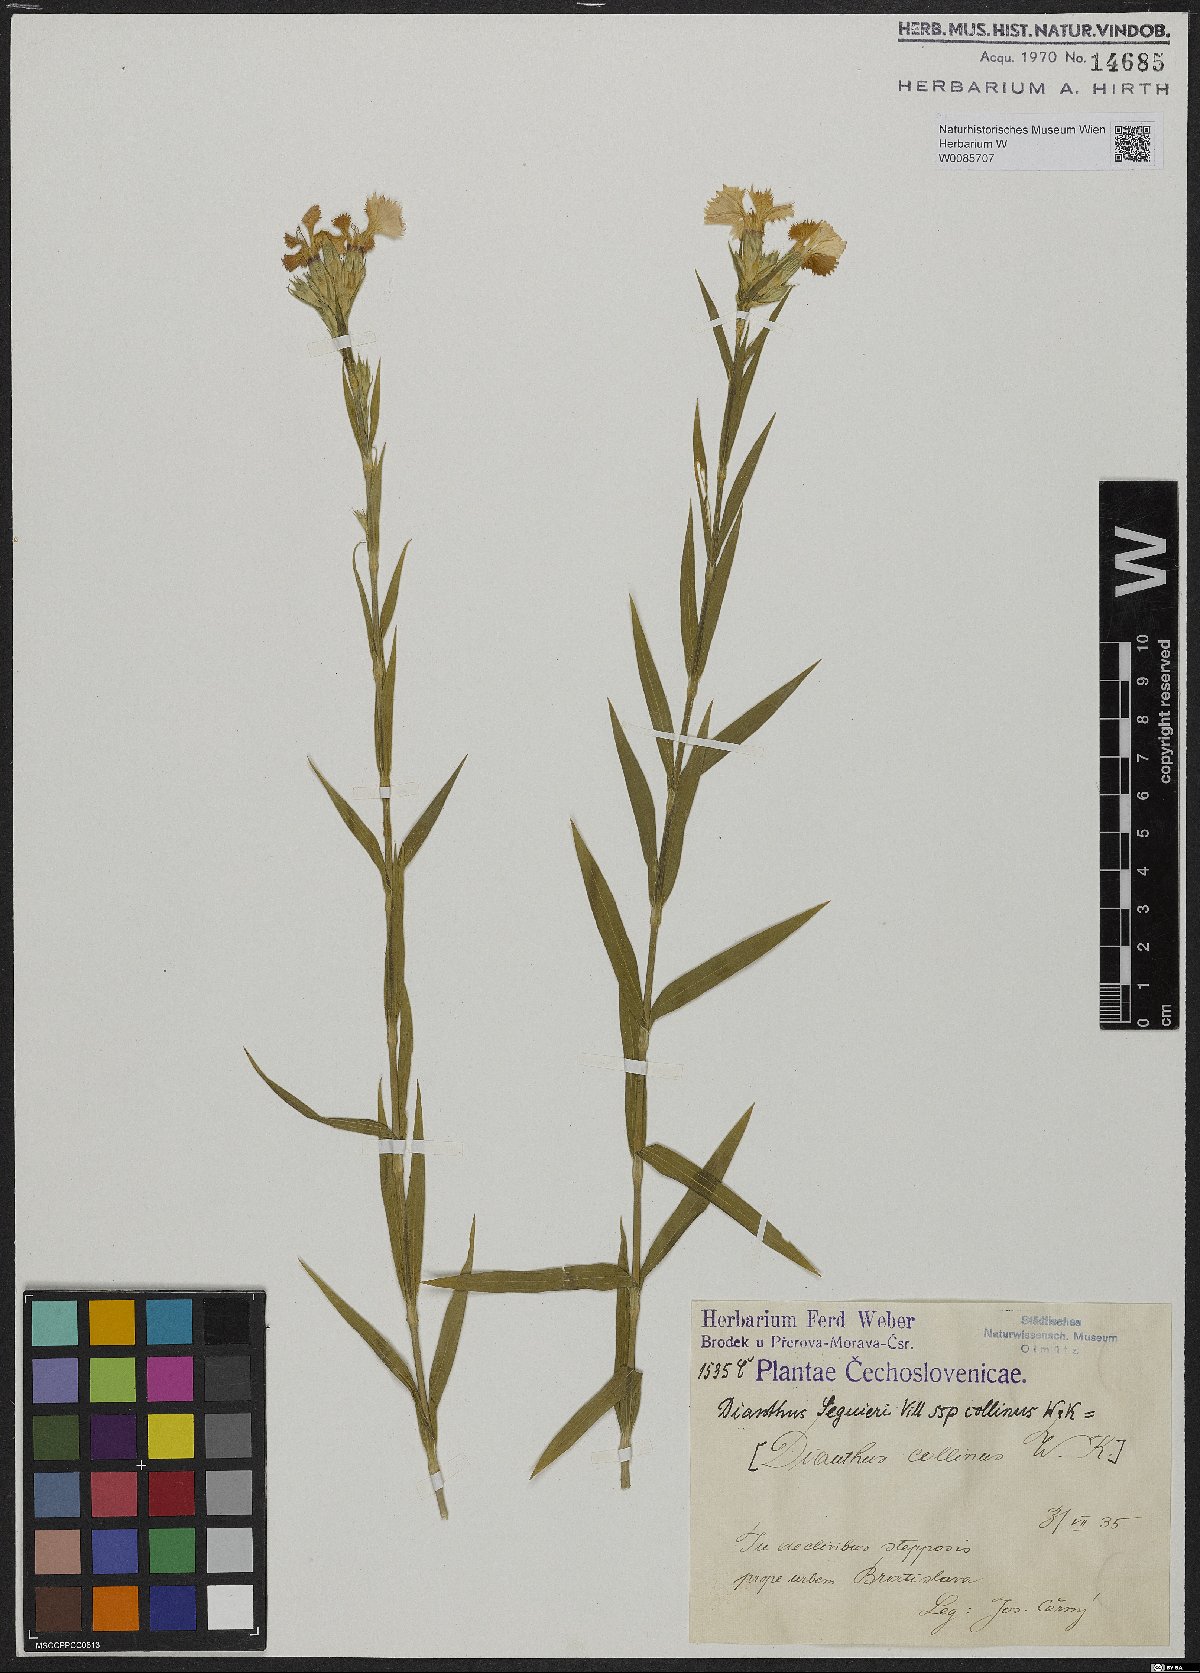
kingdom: Plantae
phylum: Tracheophyta
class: Magnoliopsida
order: Caryophyllales
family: Caryophyllaceae
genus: Dianthus
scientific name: Dianthus seguieri
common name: Ragged pink
